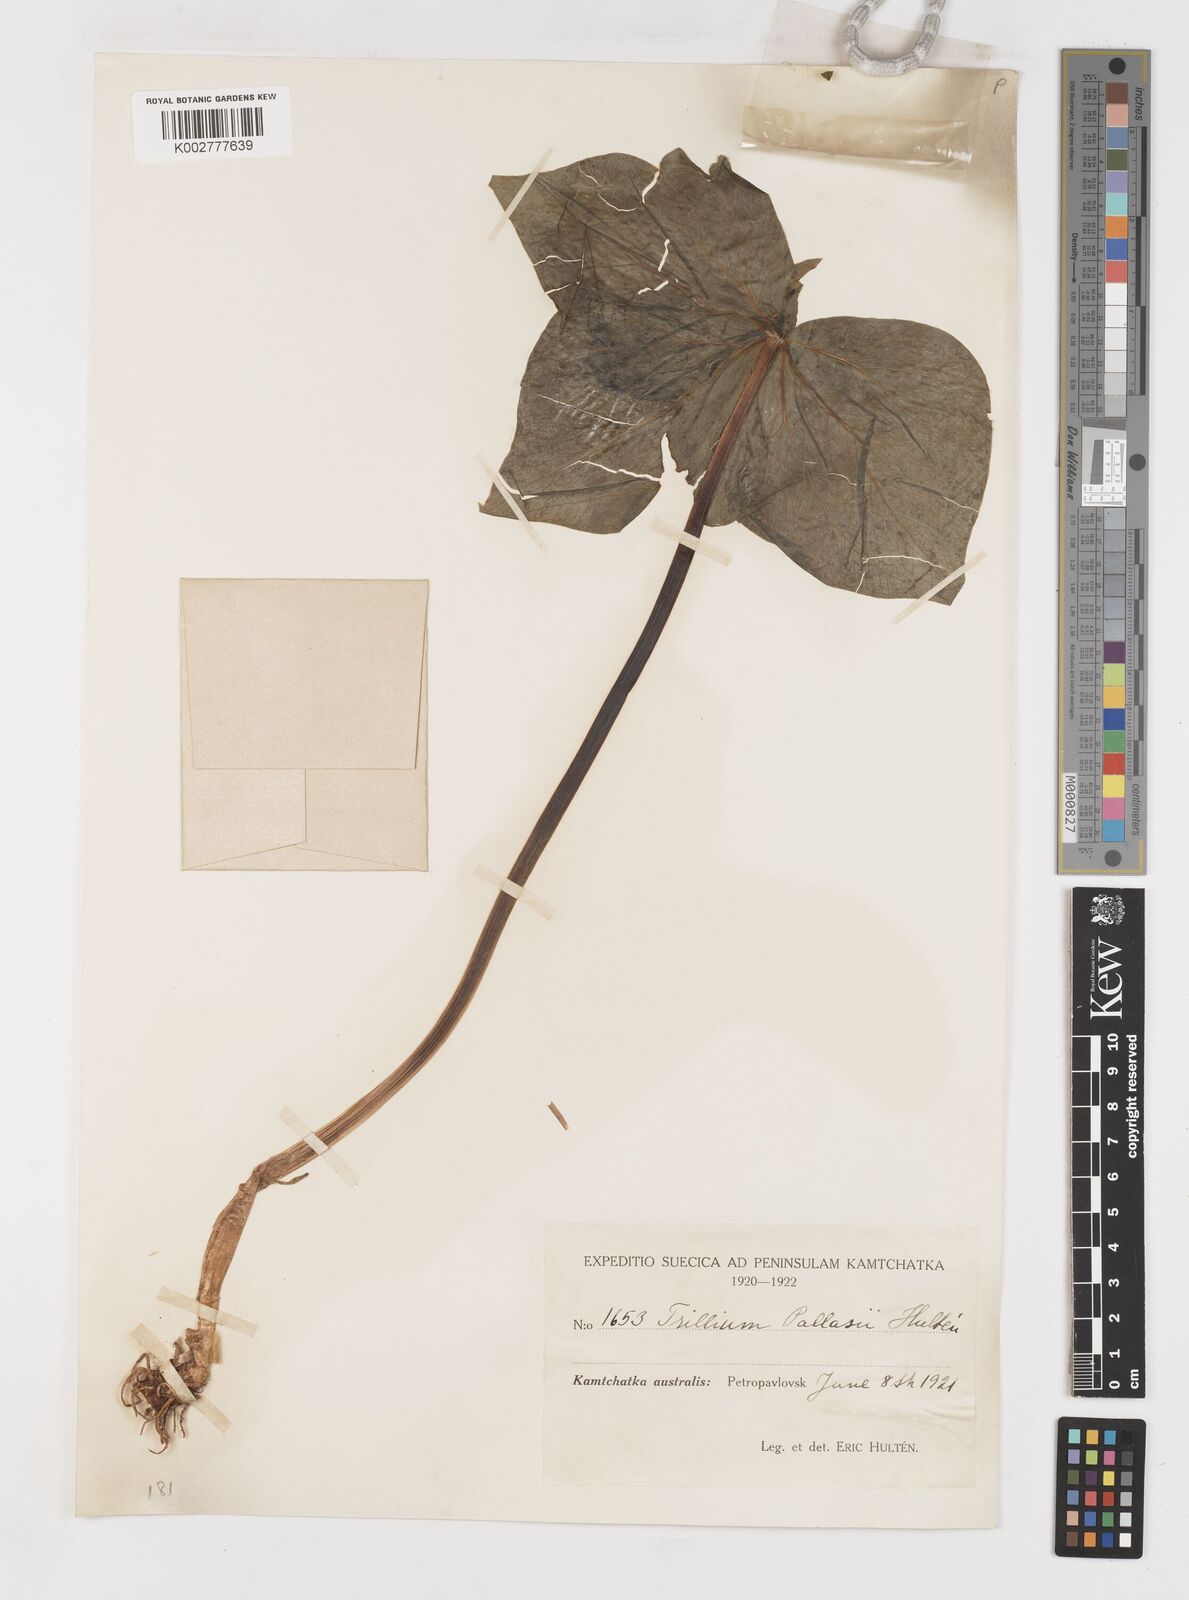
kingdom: Plantae
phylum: Tracheophyta
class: Liliopsida
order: Liliales
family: Melanthiaceae
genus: Trillium
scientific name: Trillium camschatcense
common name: Kamchatka trillium
